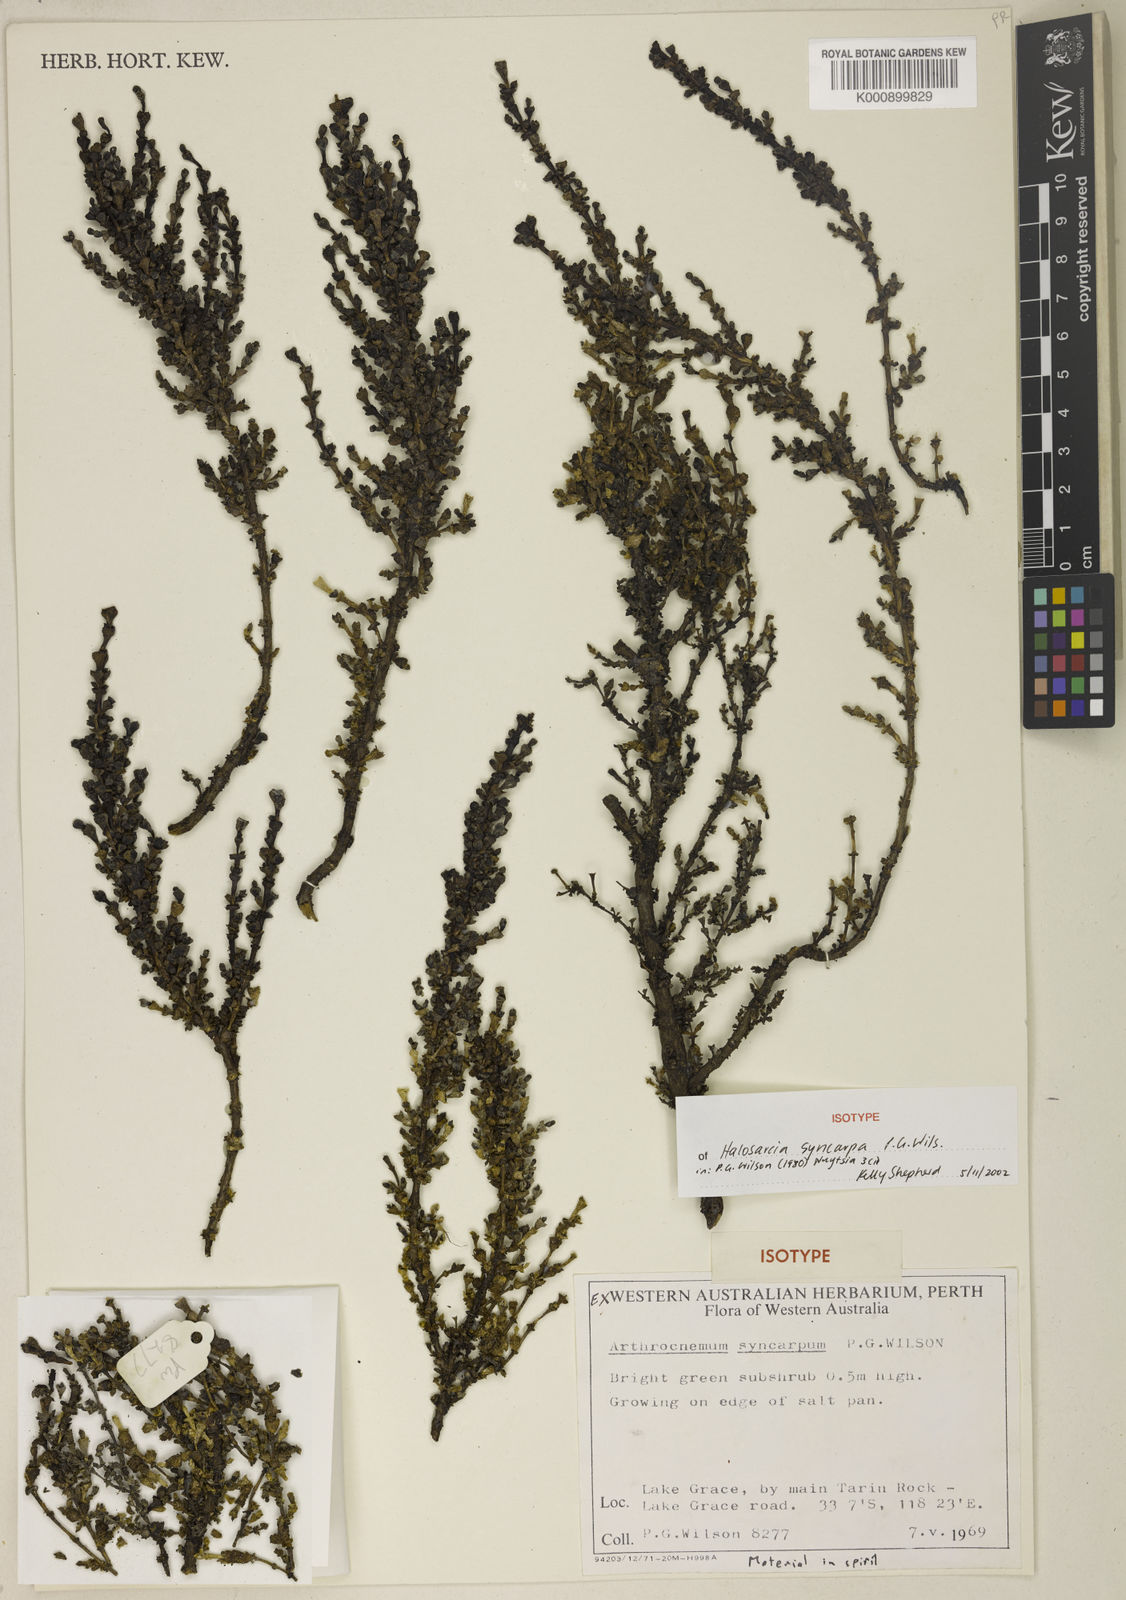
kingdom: Plantae
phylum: Tracheophyta
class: Magnoliopsida
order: Caryophyllales
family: Amaranthaceae
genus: Tecticornia
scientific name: Tecticornia syncarpa
